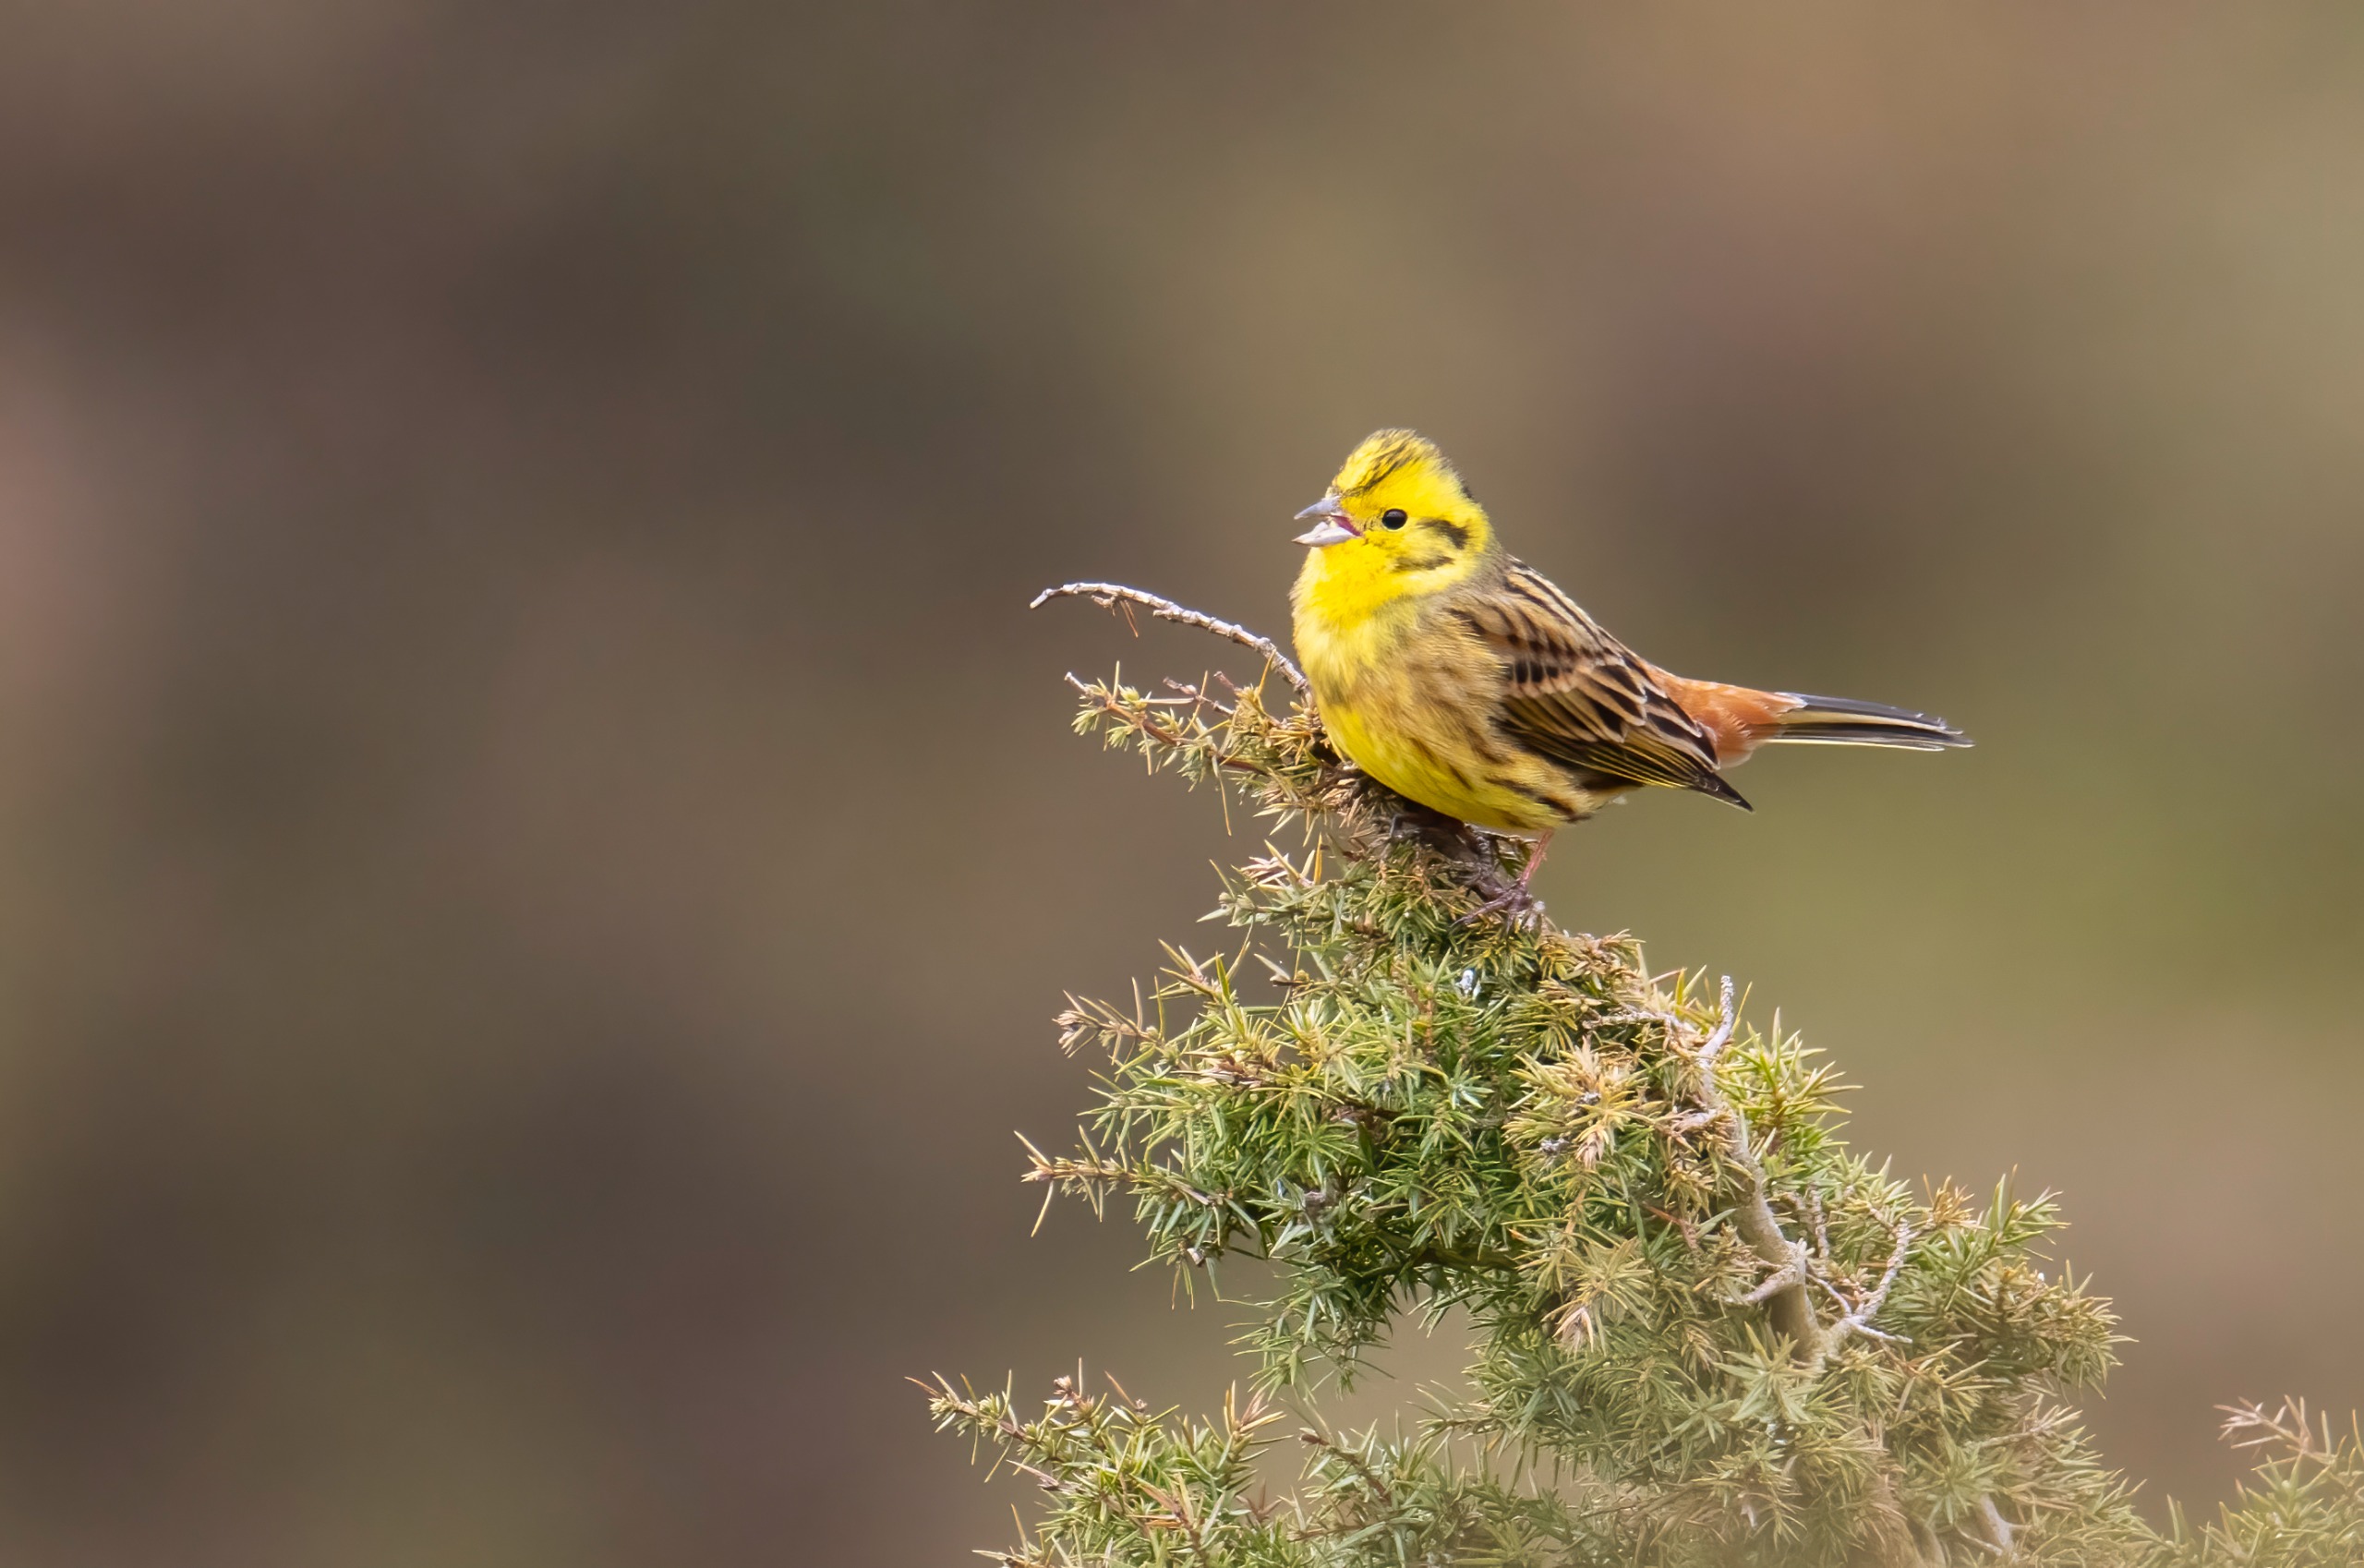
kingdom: Animalia
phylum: Chordata
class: Aves
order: Passeriformes
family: Emberizidae
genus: Emberiza
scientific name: Emberiza citrinella
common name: Gulspurv
